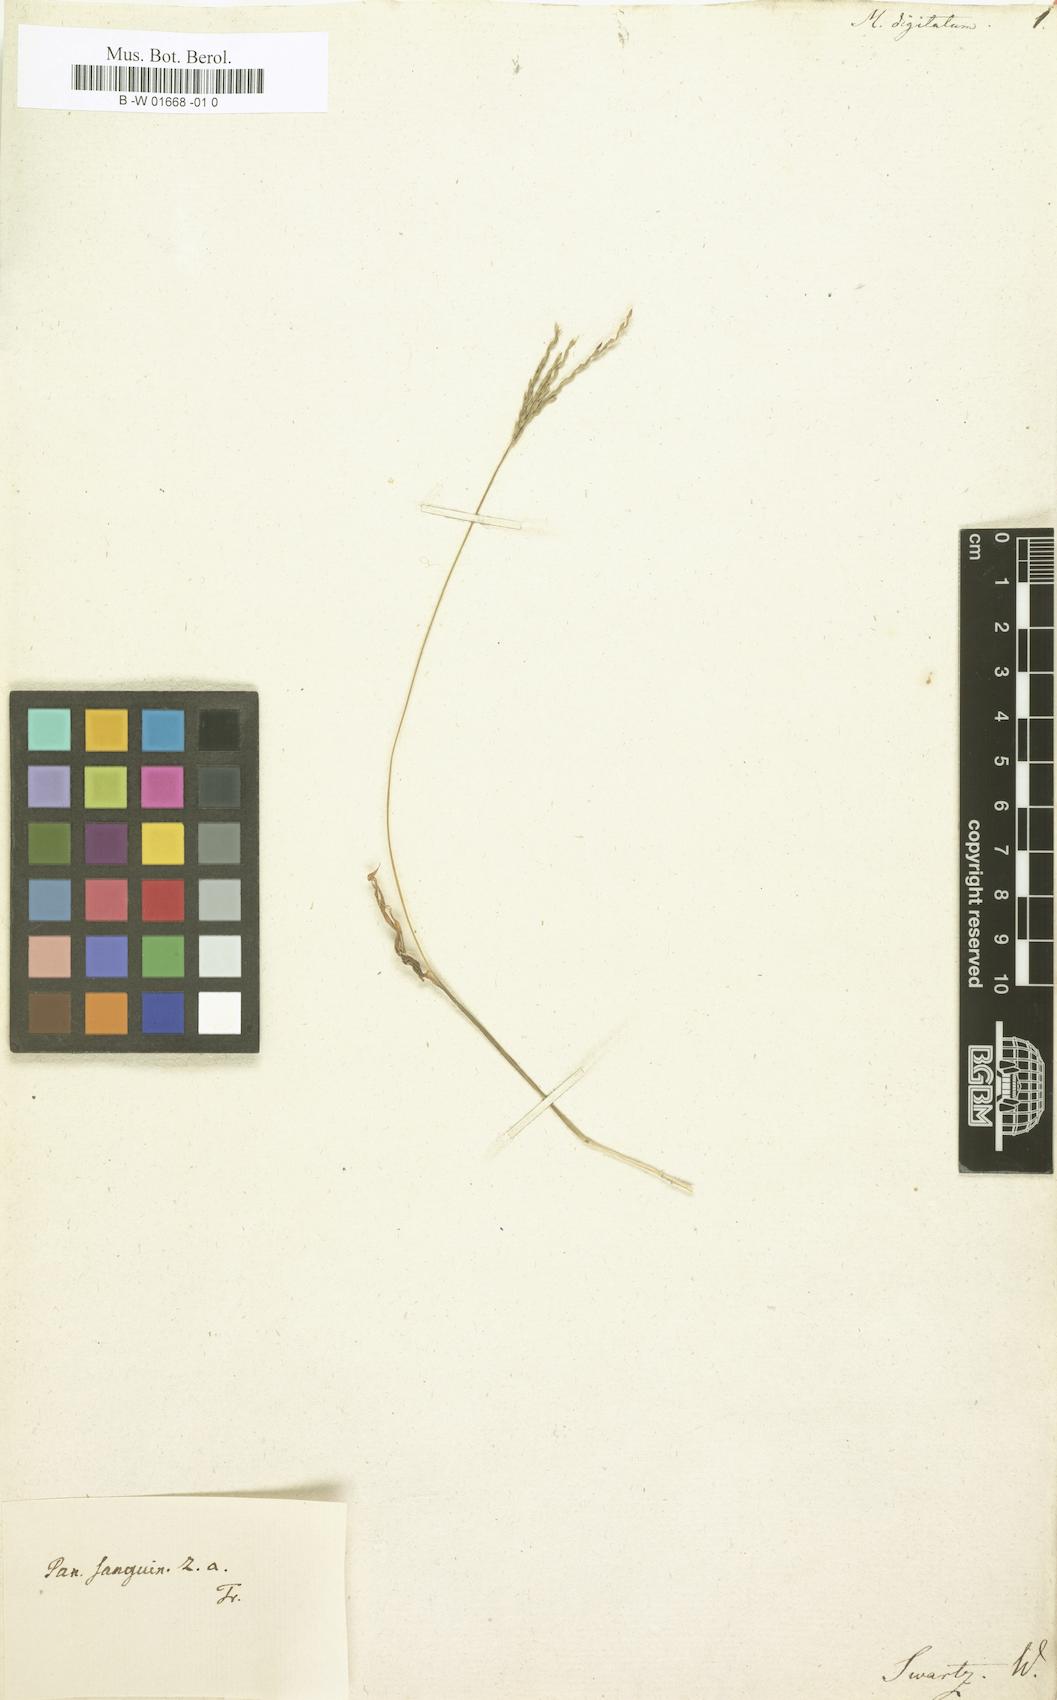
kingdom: Plantae
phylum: Tracheophyta
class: Liliopsida
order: Poales
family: Poaceae
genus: Digitaria
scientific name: Digitaria nuda
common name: Naked crabgrass
